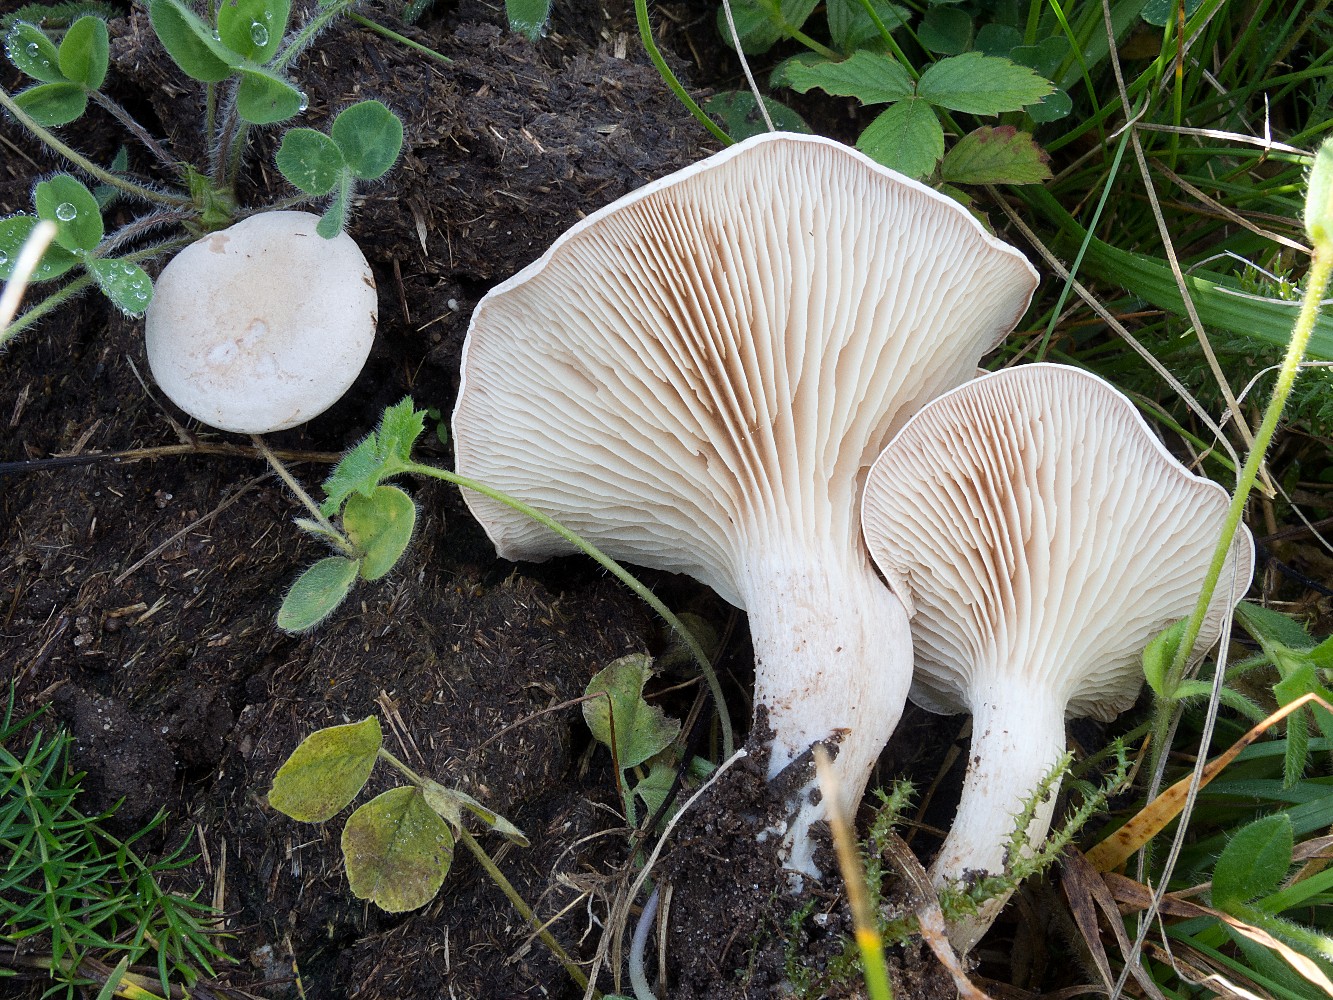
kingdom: Fungi
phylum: Basidiomycota
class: Agaricomycetes
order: Agaricales
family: Tricholomataceae
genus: Clitocybe
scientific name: Clitocybe rivulosa
